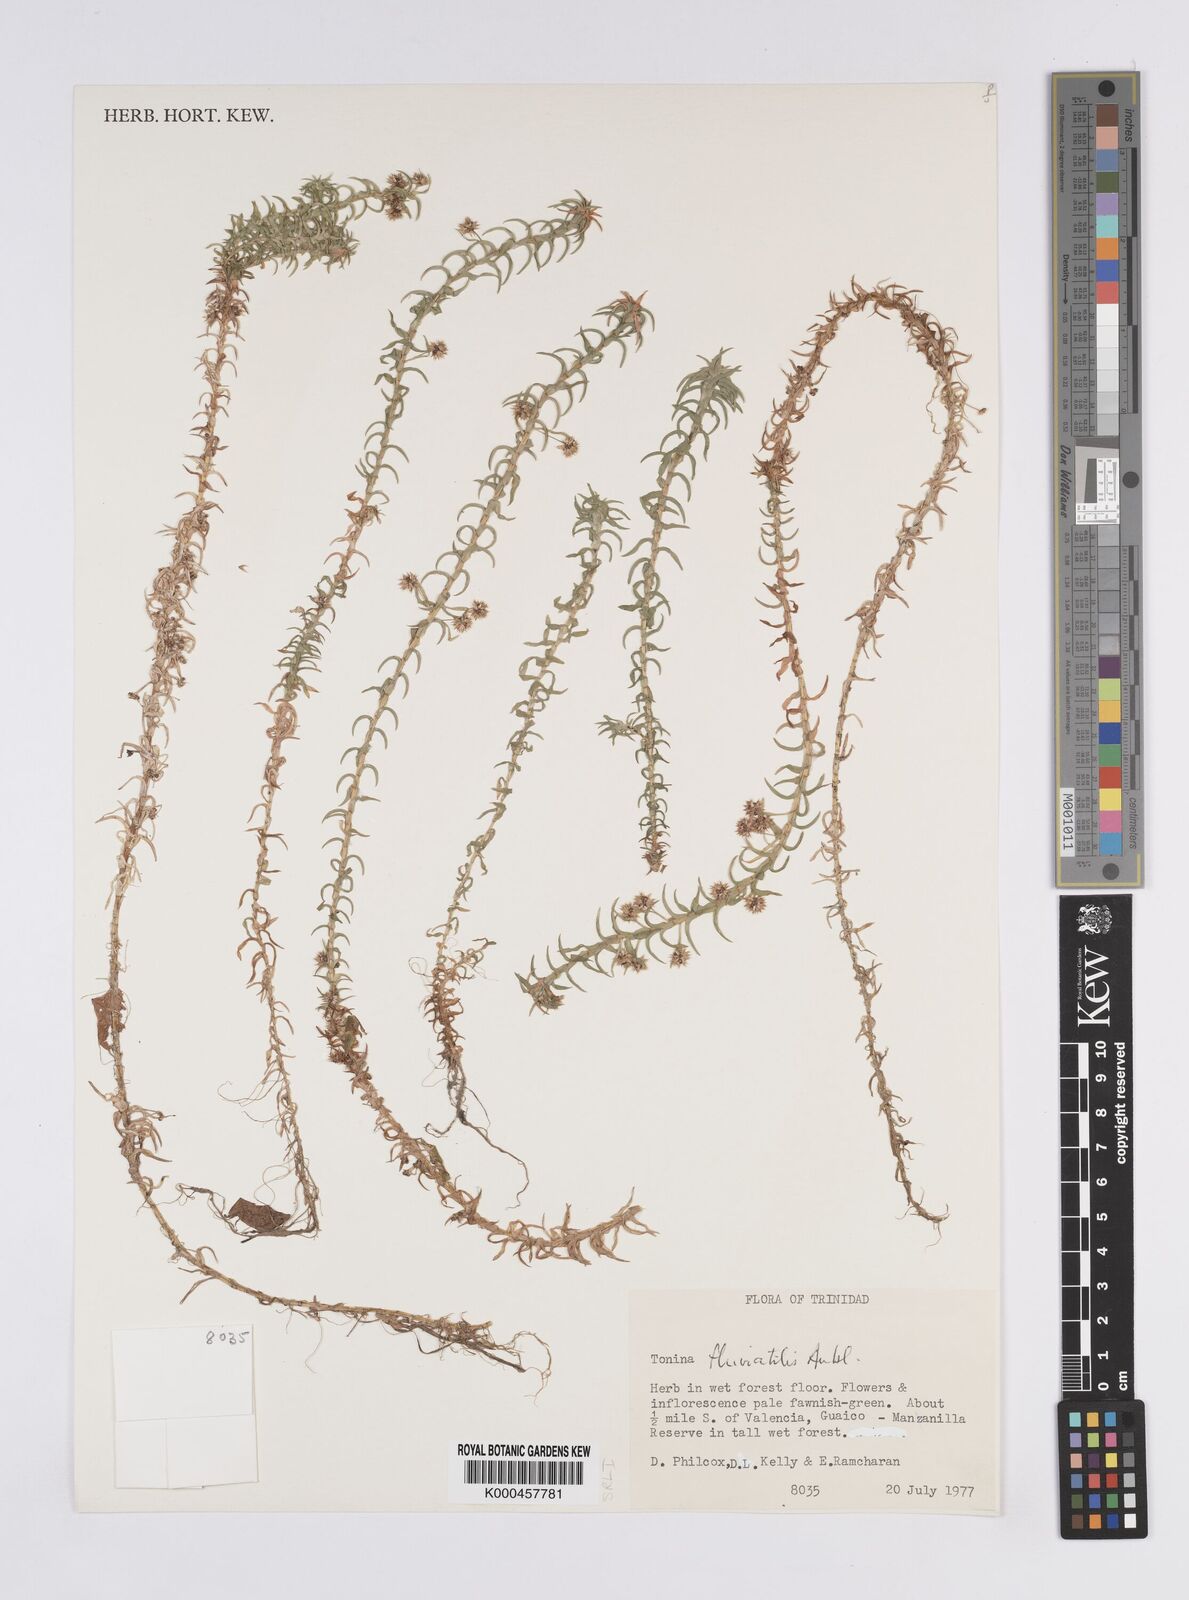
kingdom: Plantae
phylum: Tracheophyta
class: Liliopsida
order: Poales
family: Eriocaulaceae
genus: Paepalanthus
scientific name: Paepalanthus fluviatilis
